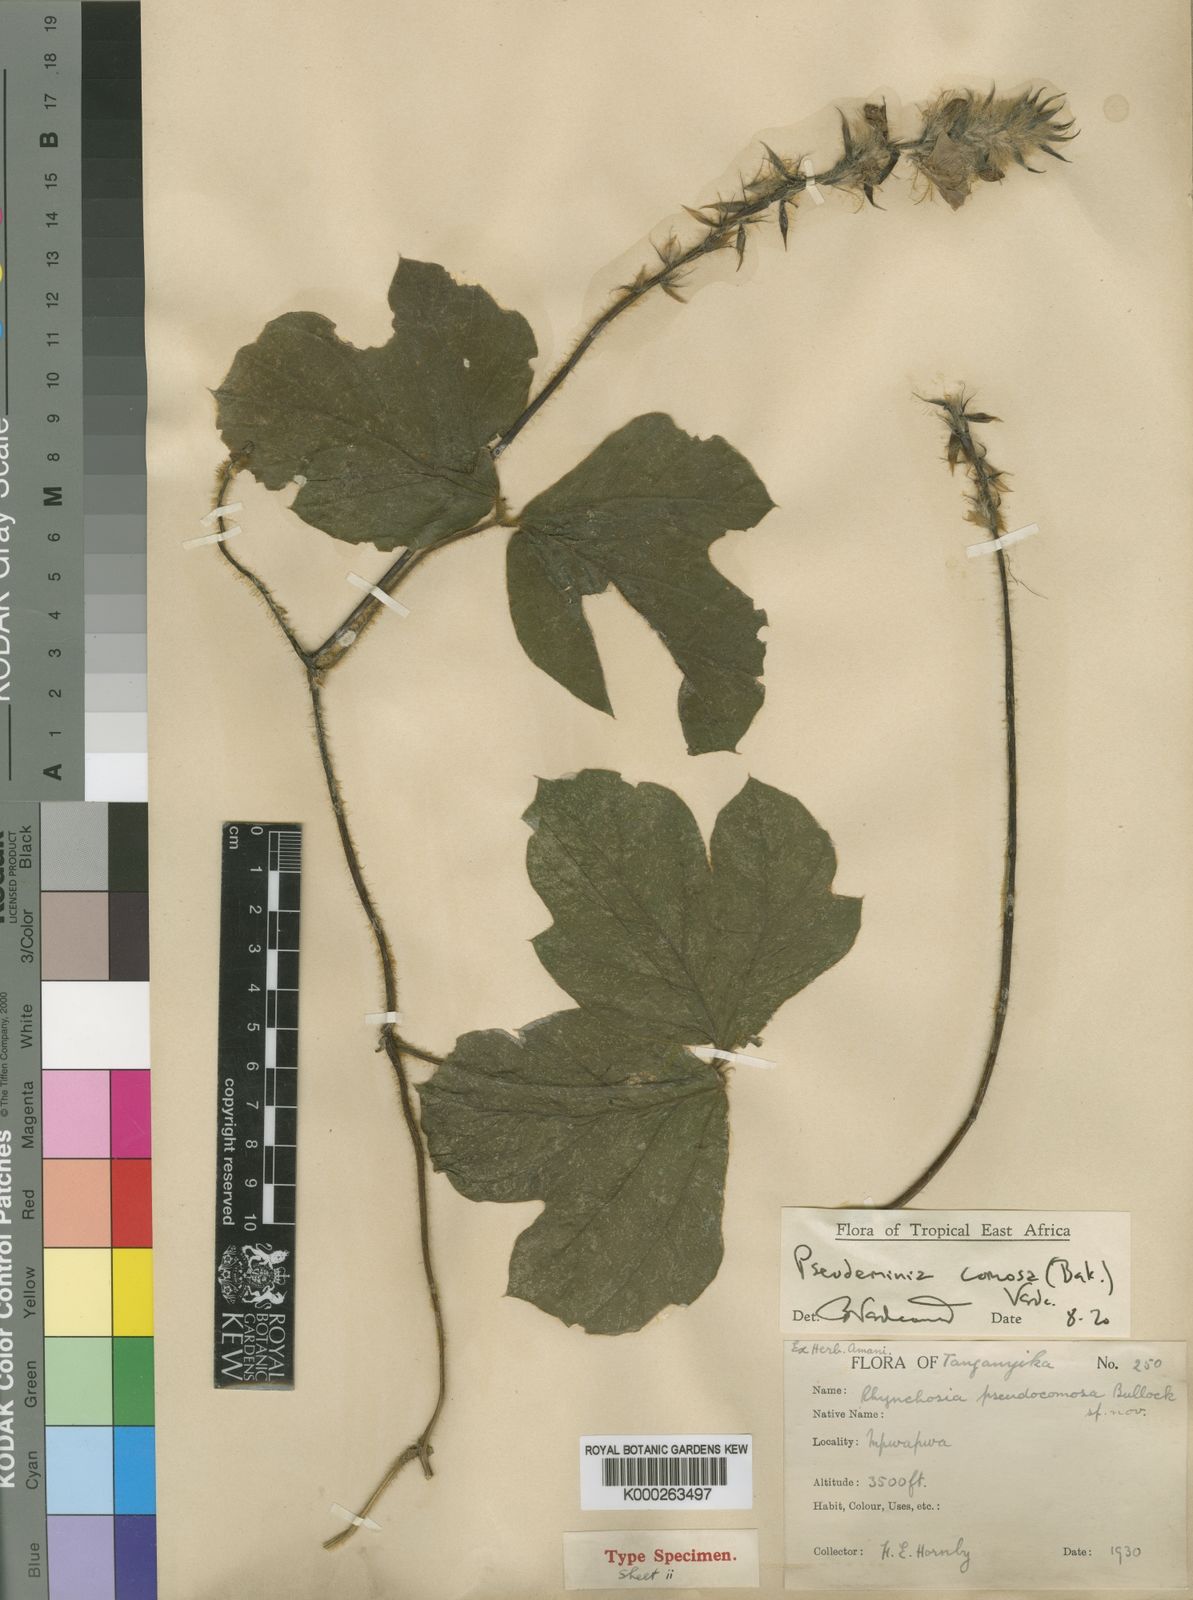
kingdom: Plantae
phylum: Tracheophyta
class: Magnoliopsida
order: Fabales
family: Fabaceae
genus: Pseudeminia
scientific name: Pseudeminia comosa
